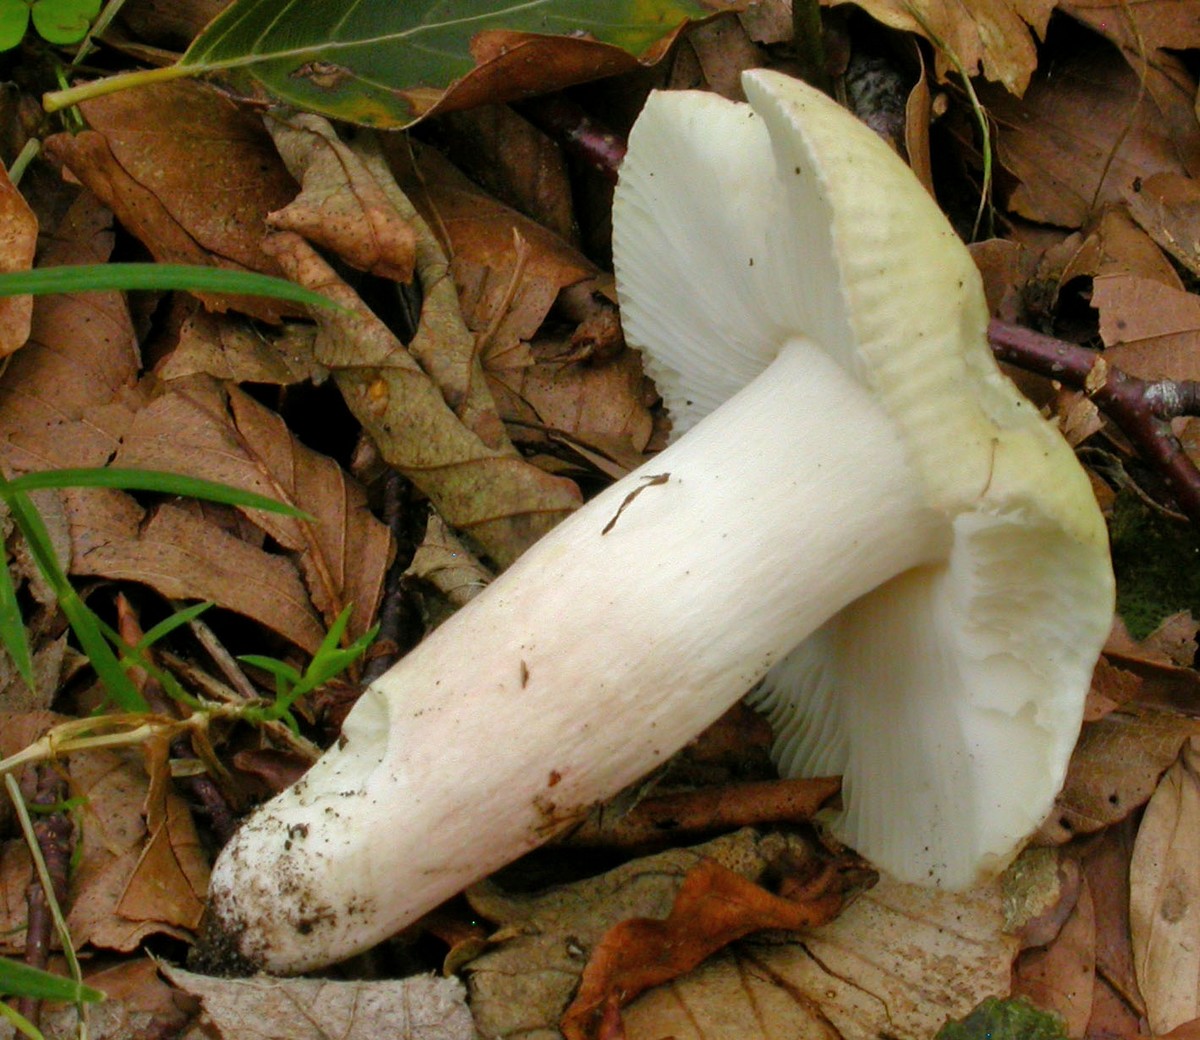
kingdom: Fungi
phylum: Basidiomycota
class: Agaricomycetes
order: Russulales
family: Russulaceae
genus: Russula
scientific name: Russula violeipes
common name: ferskengul skørhat
